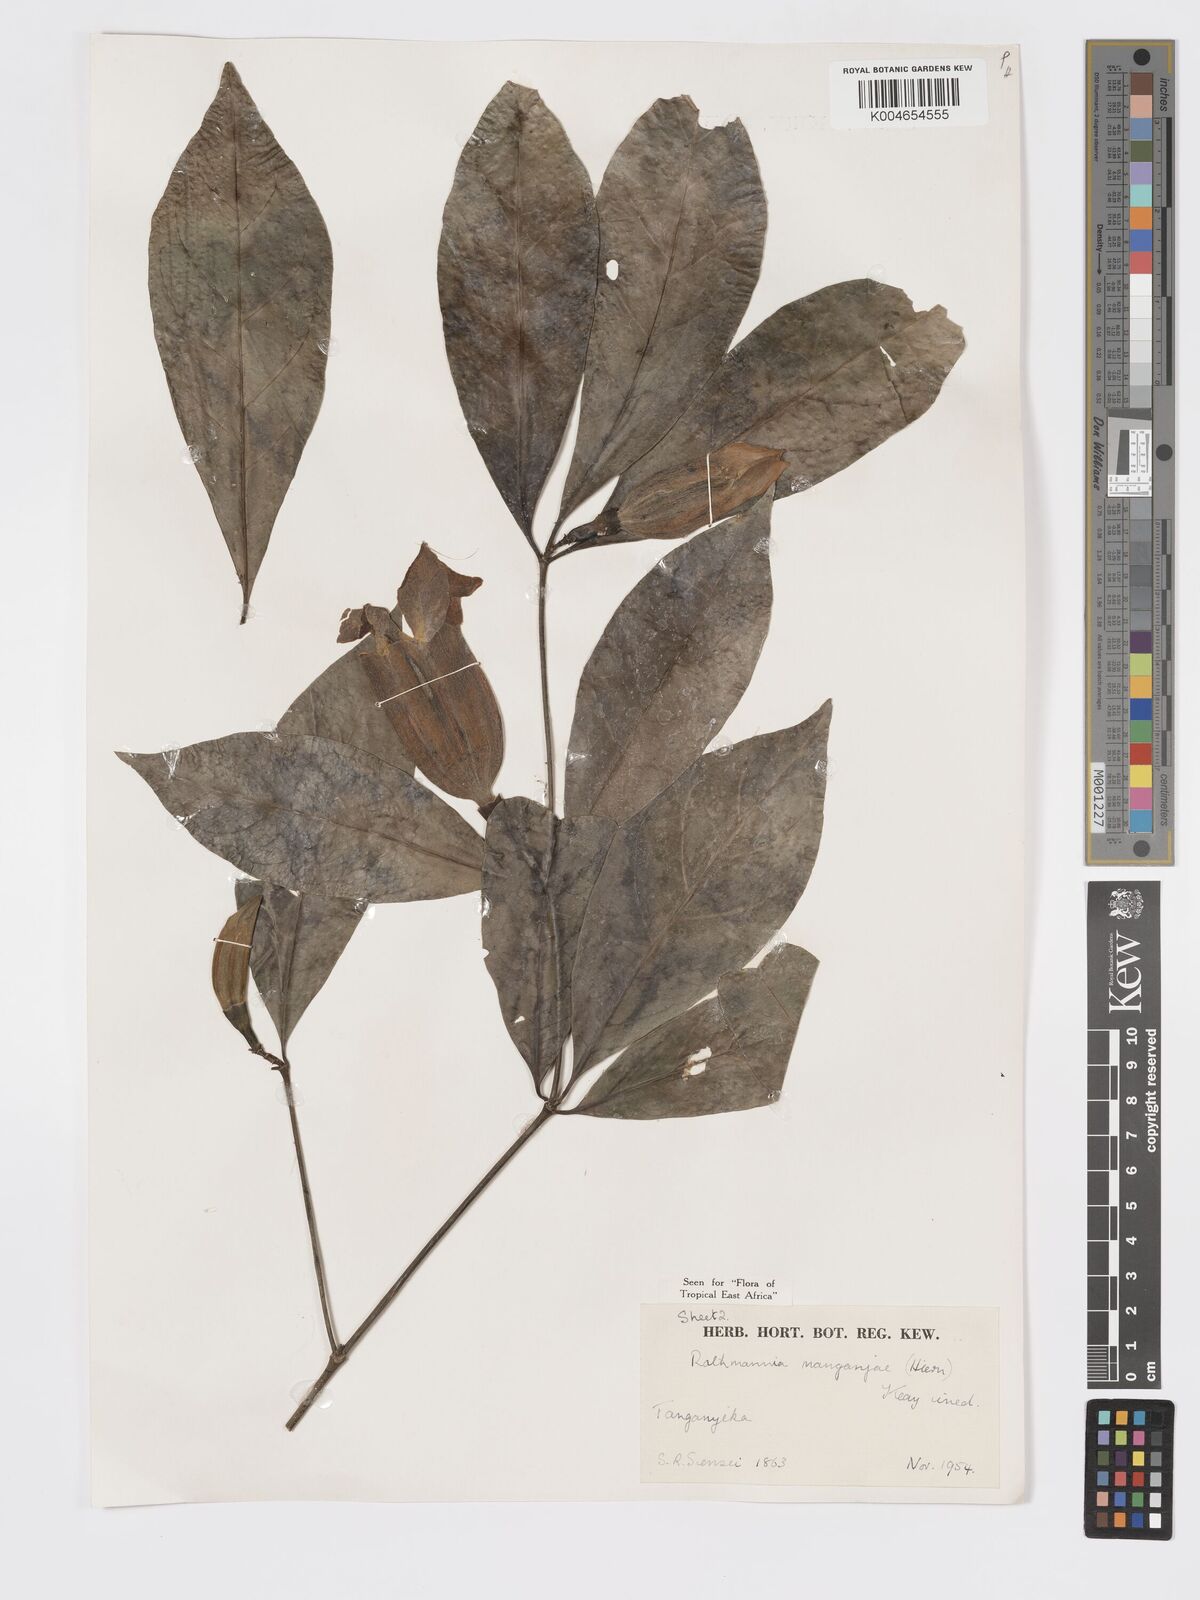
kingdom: Plantae
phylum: Tracheophyta
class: Magnoliopsida
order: Gentianales
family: Rubiaceae
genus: Rothmannia
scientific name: Rothmannia manganjae
